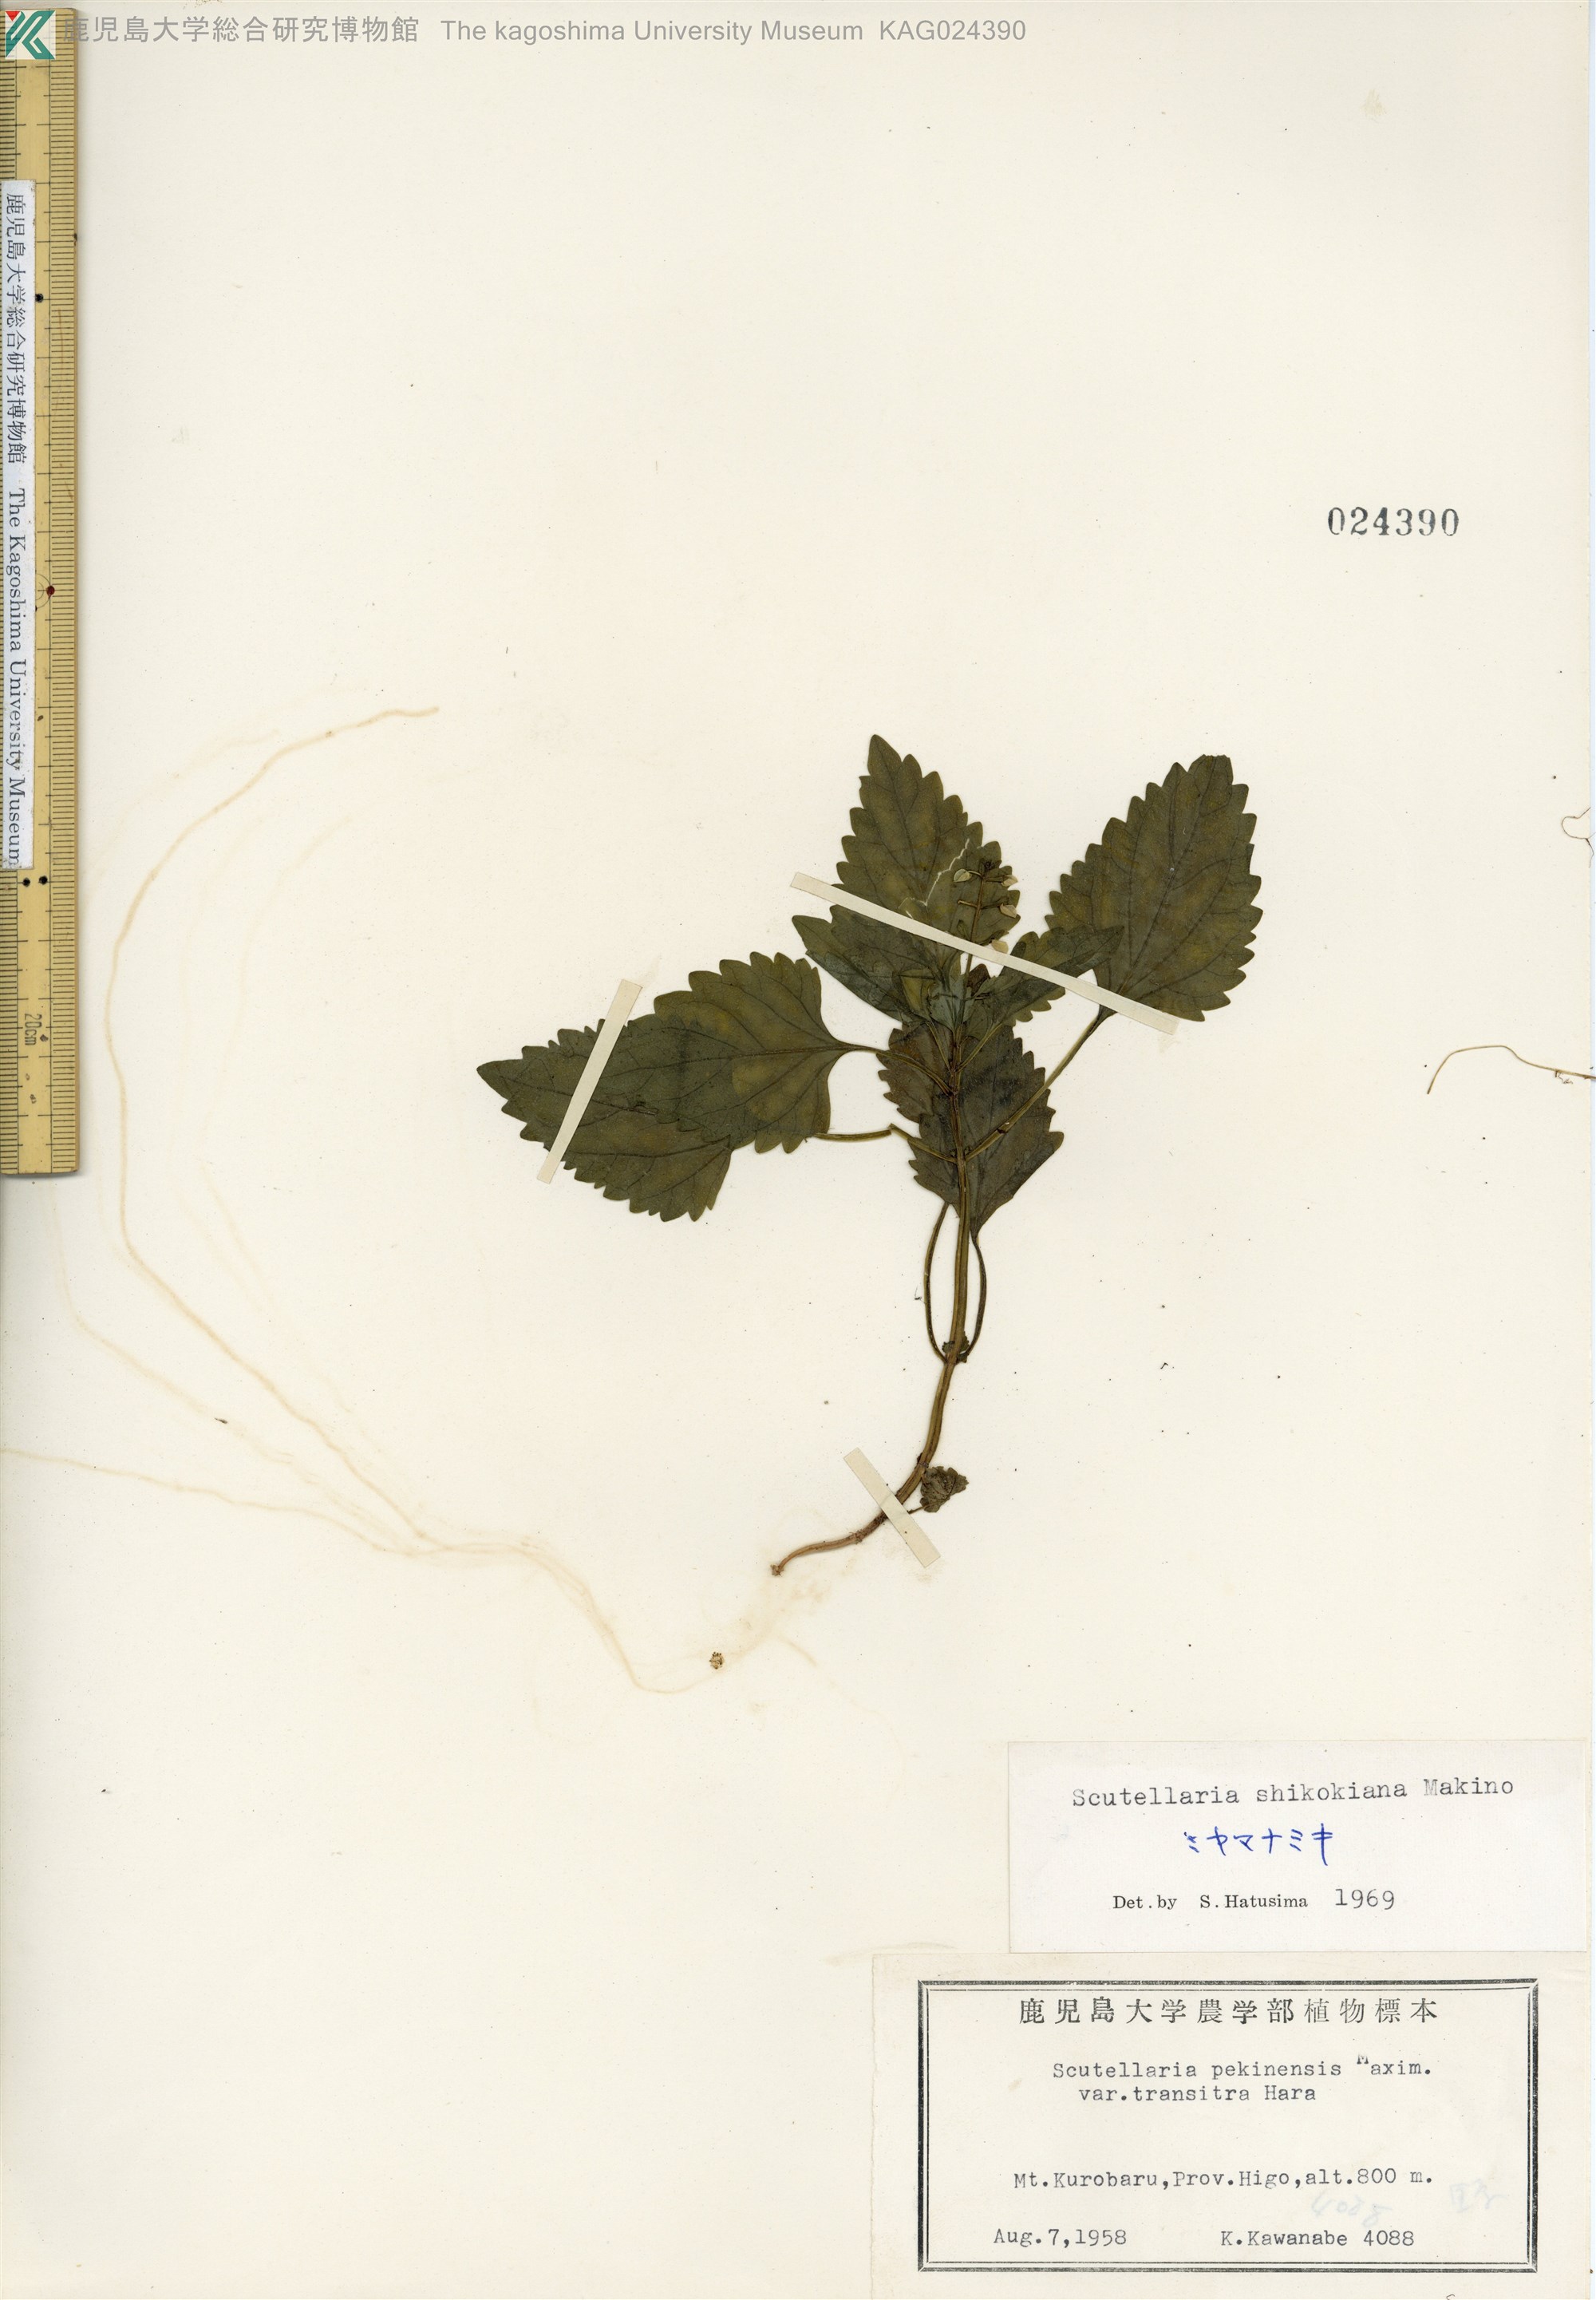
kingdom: Plantae
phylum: Tracheophyta
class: Magnoliopsida
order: Lamiales
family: Lamiaceae
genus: Scutellaria
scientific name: Scutellaria shikokiana
